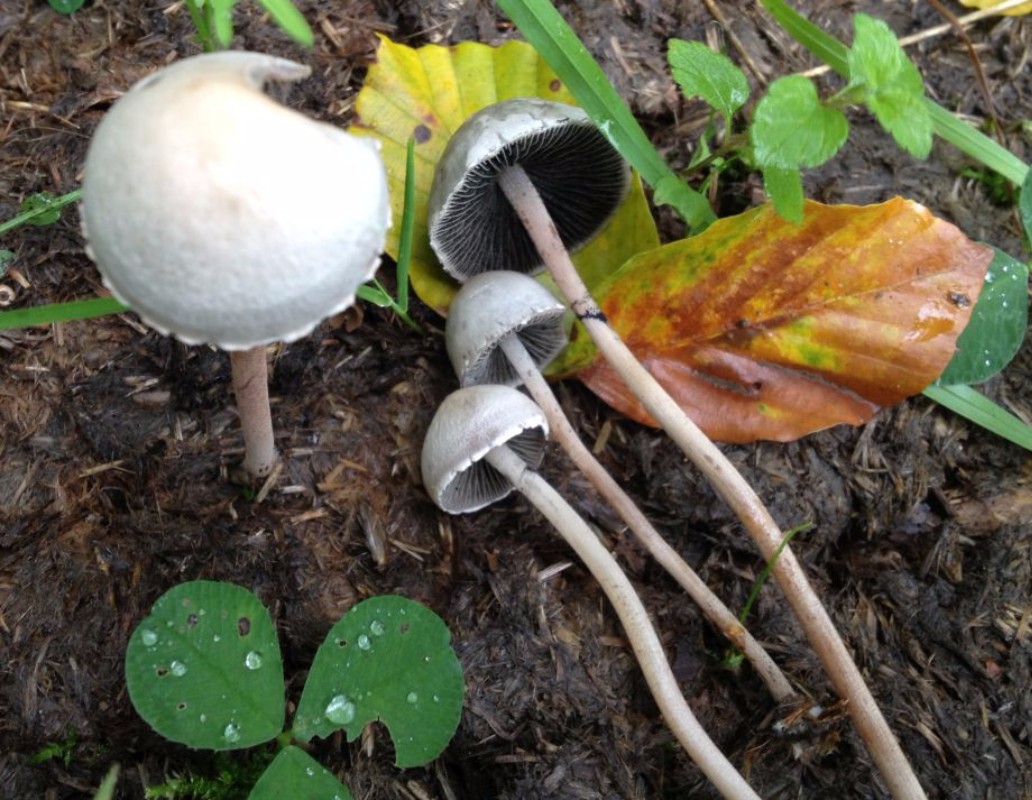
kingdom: Fungi
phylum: Basidiomycota
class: Agaricomycetes
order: Agaricales
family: Bolbitiaceae
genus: Panaeolus
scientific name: Panaeolus papilionaceus
